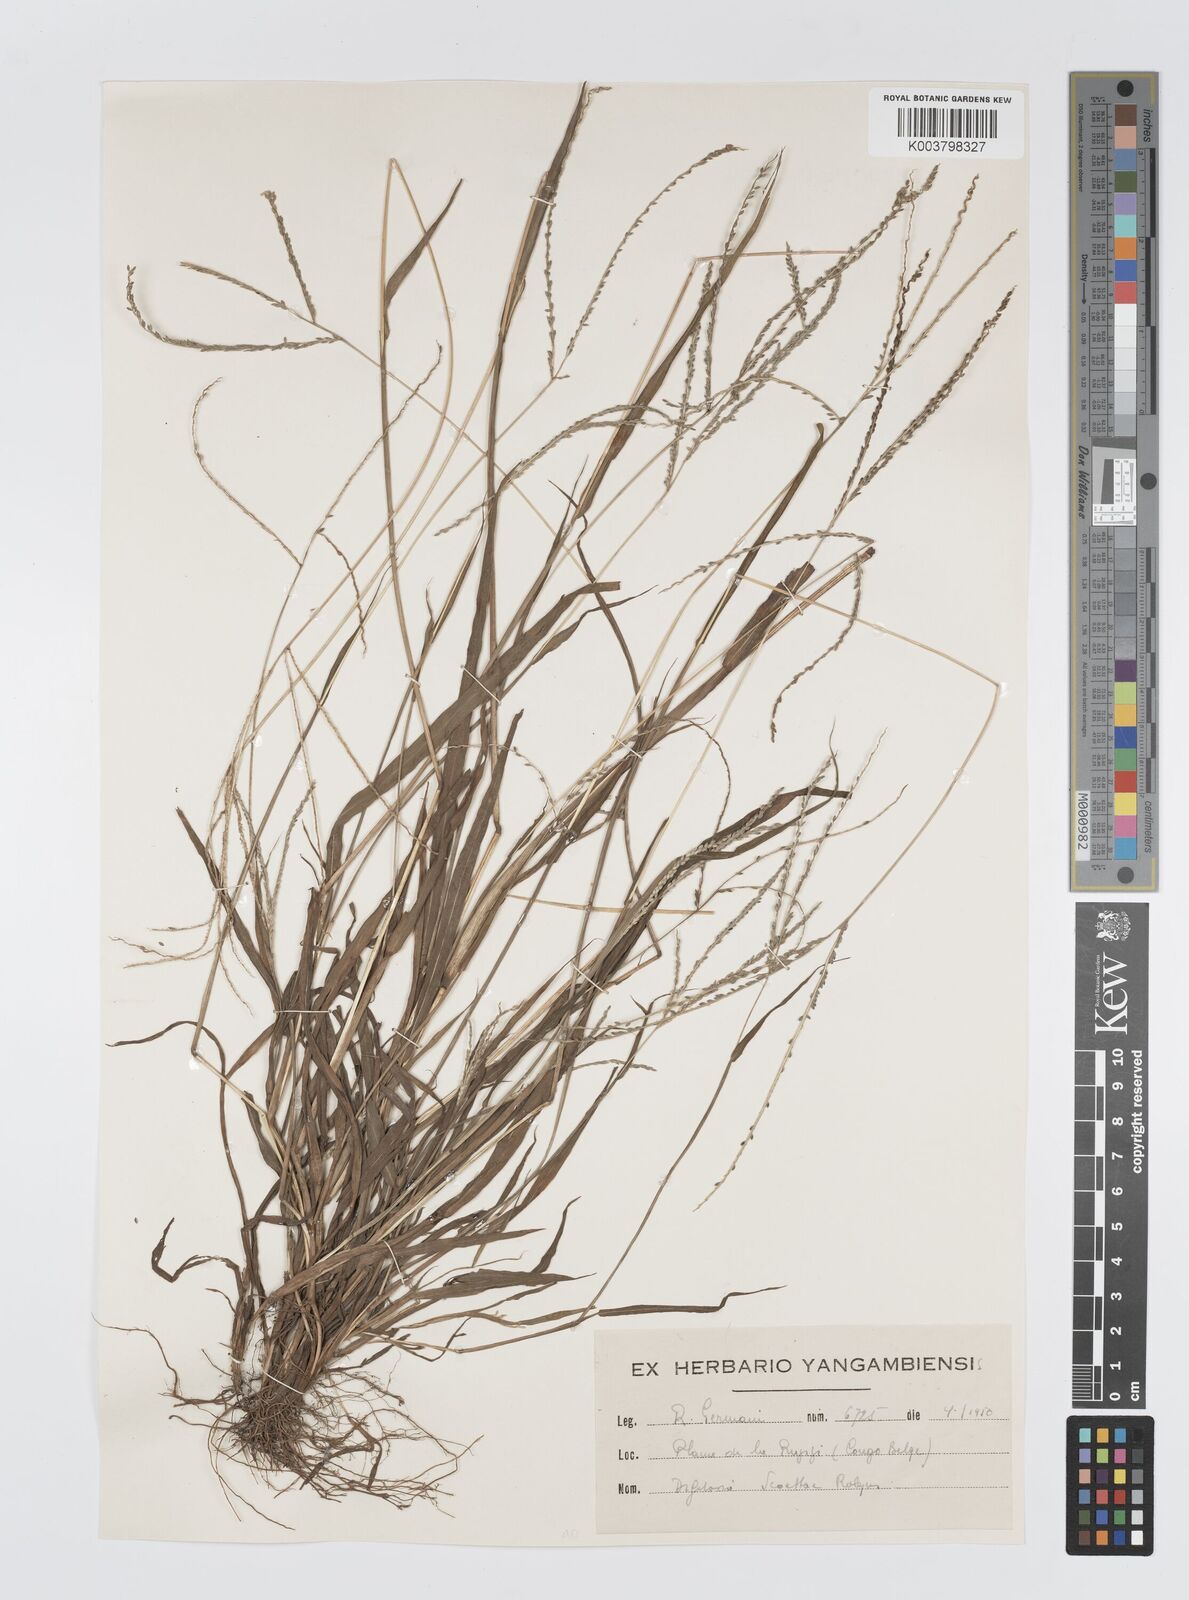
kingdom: Plantae
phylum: Tracheophyta
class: Liliopsida
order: Poales
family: Poaceae
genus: Digitaria
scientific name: Digitaria thouarsiana
